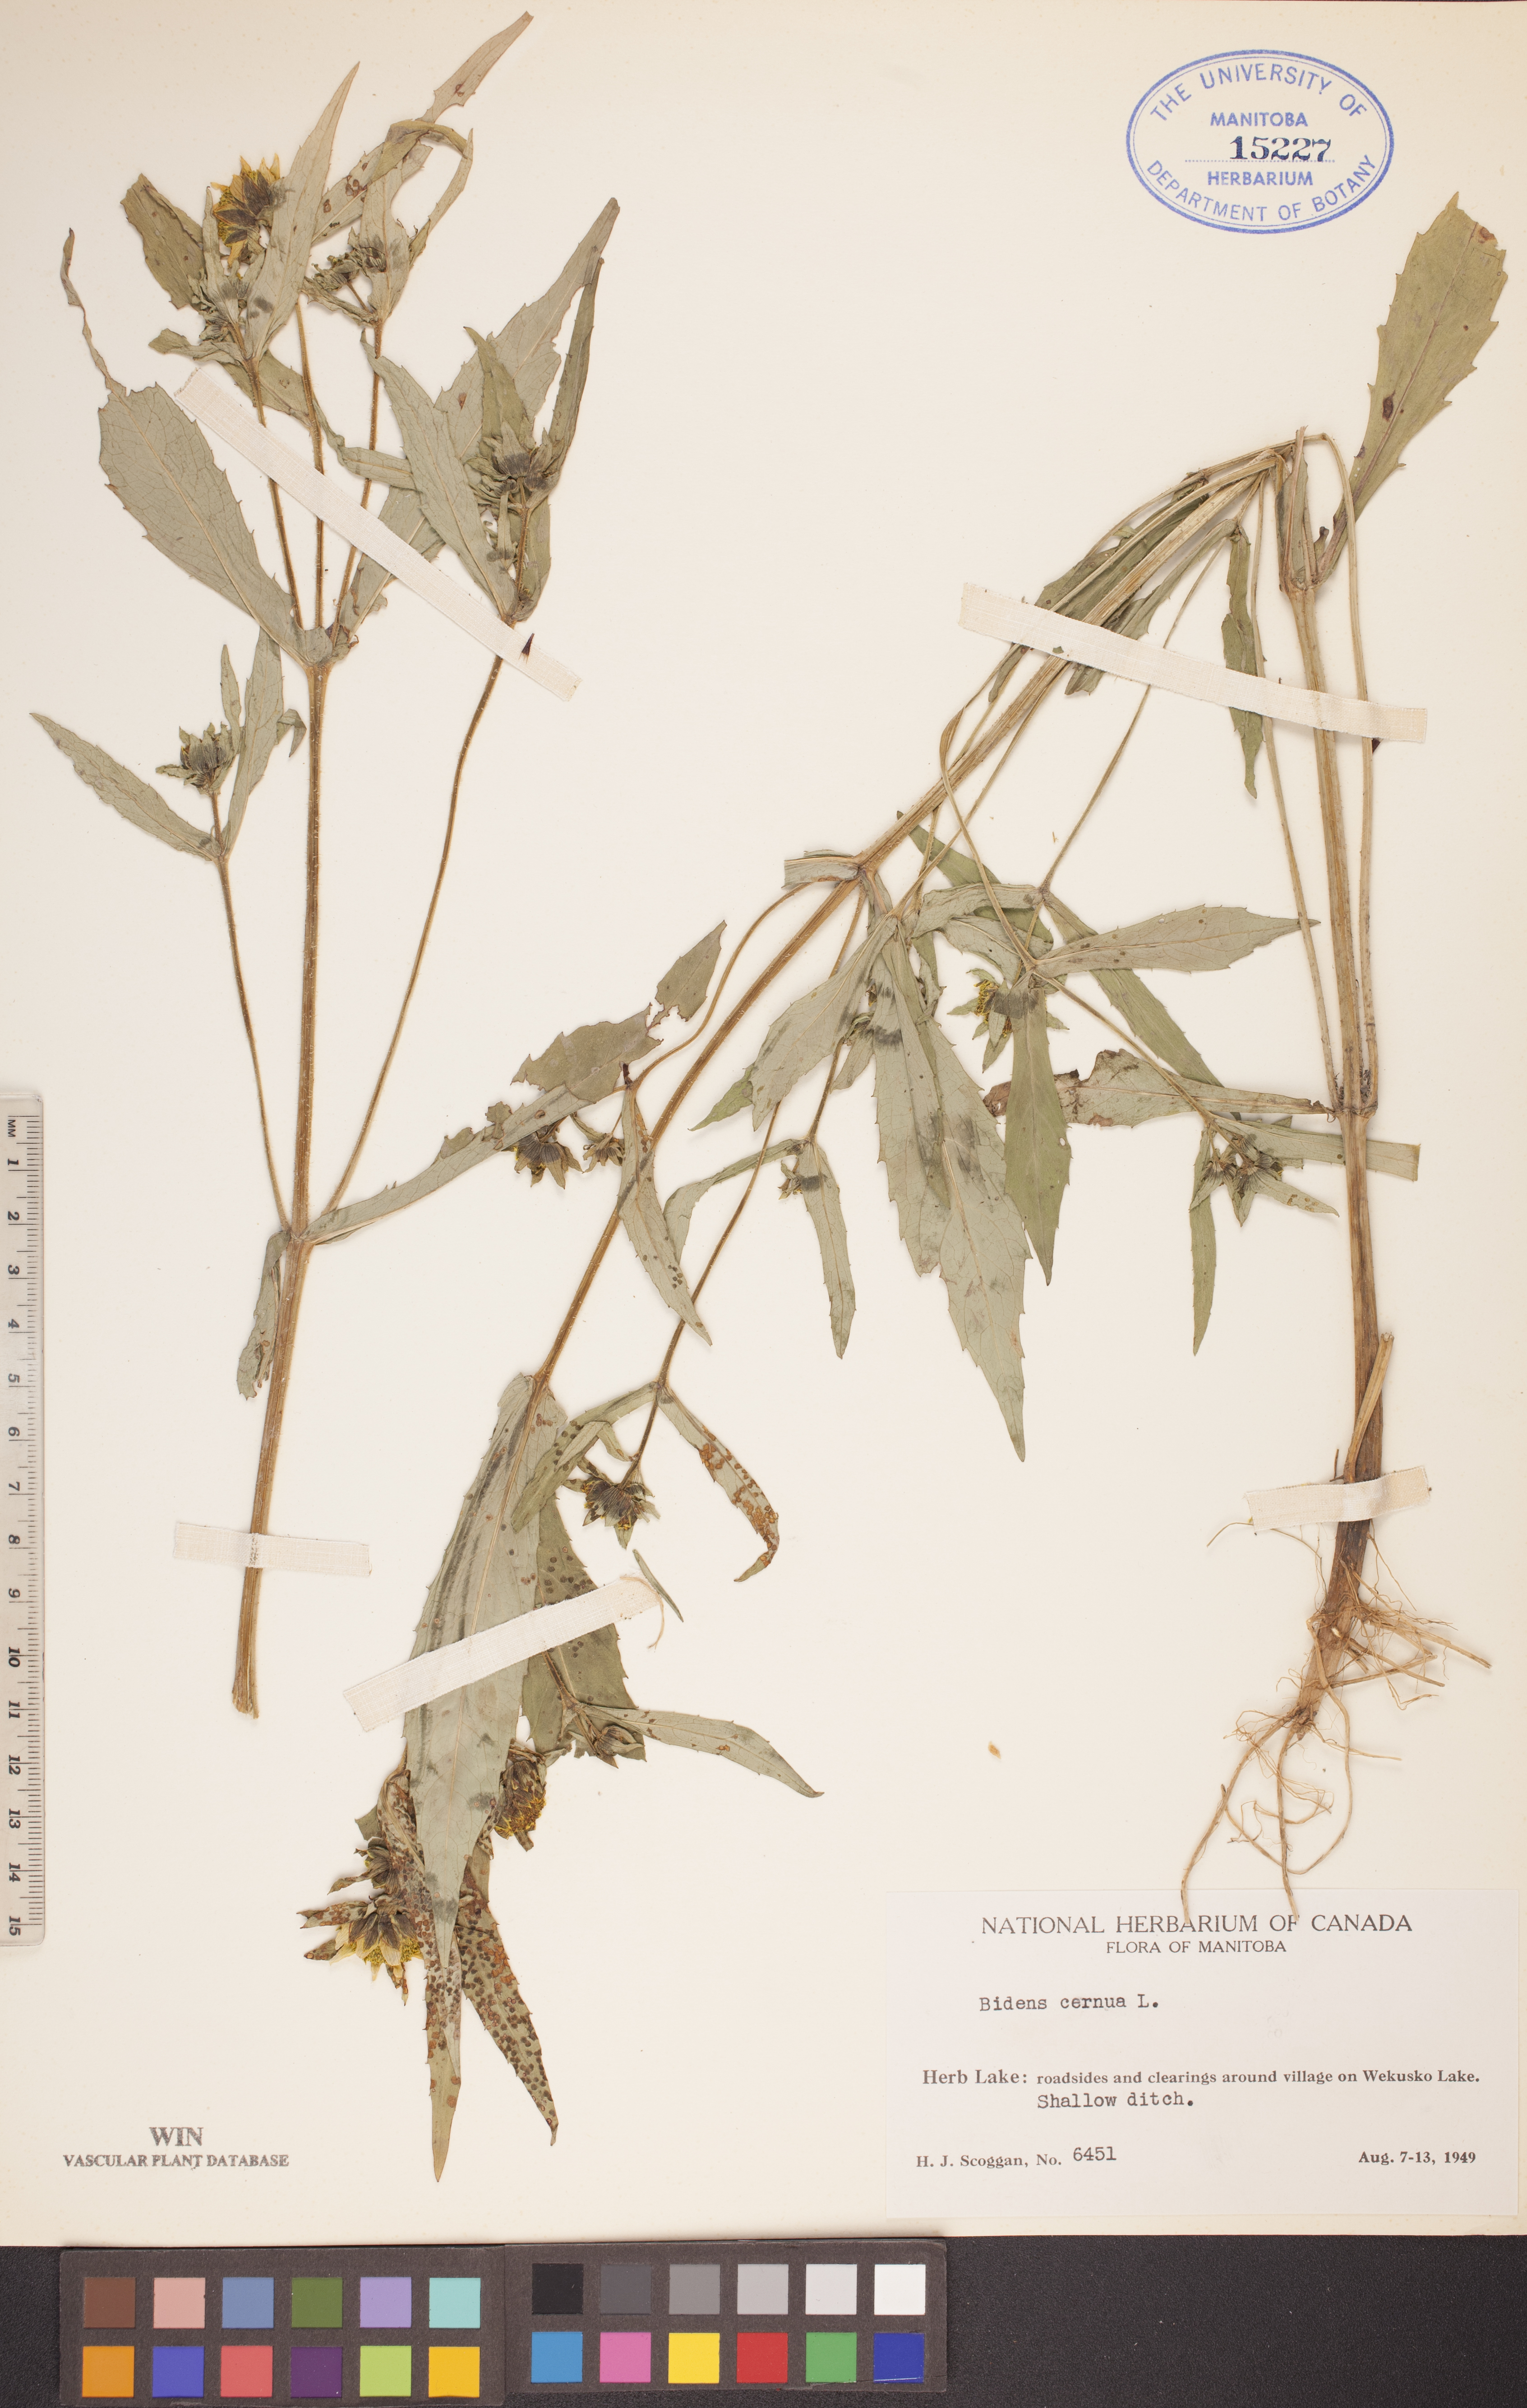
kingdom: Plantae
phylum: Tracheophyta
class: Magnoliopsida
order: Asterales
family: Asteraceae
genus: Bidens
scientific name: Bidens cernua
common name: Nodding bur-marigold
